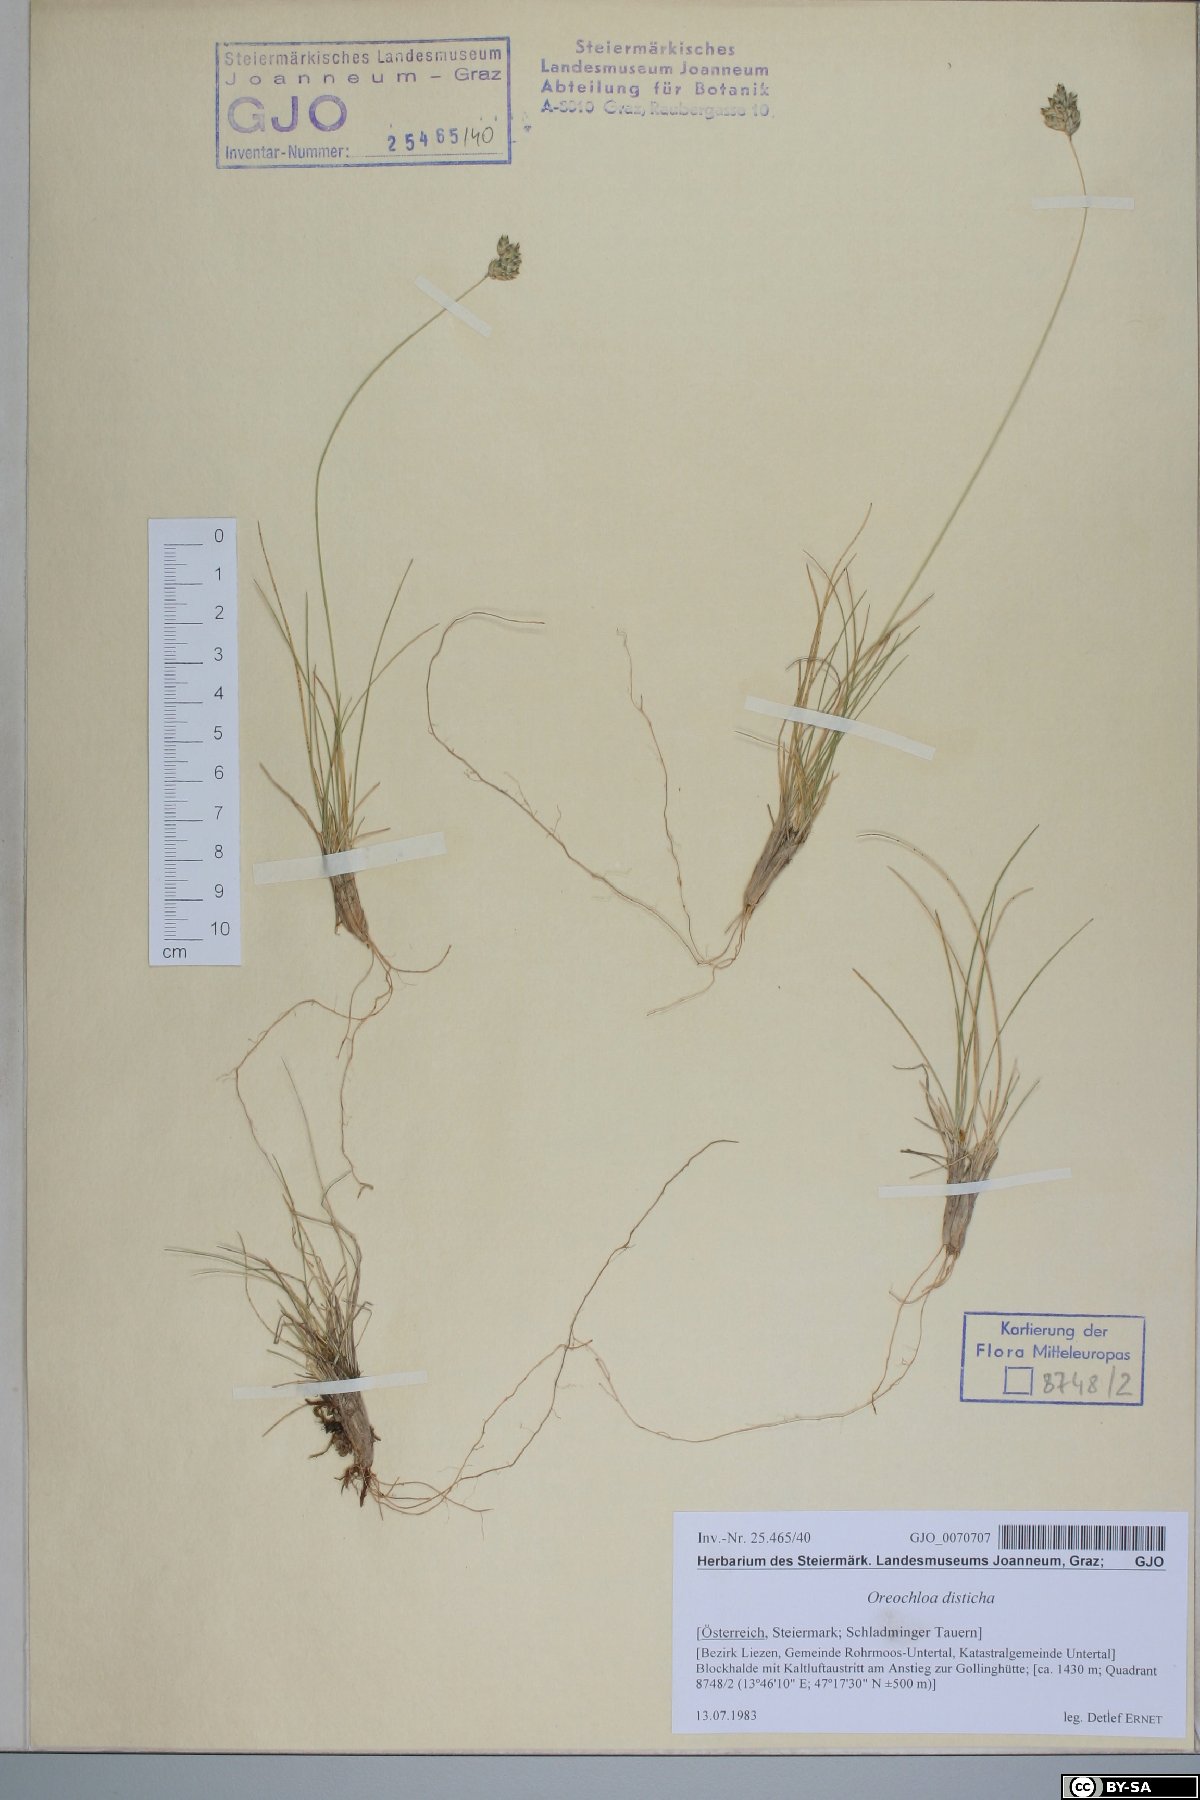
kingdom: Plantae
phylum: Tracheophyta
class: Liliopsida
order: Poales
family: Poaceae
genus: Oreochloa
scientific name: Oreochloa disticha
